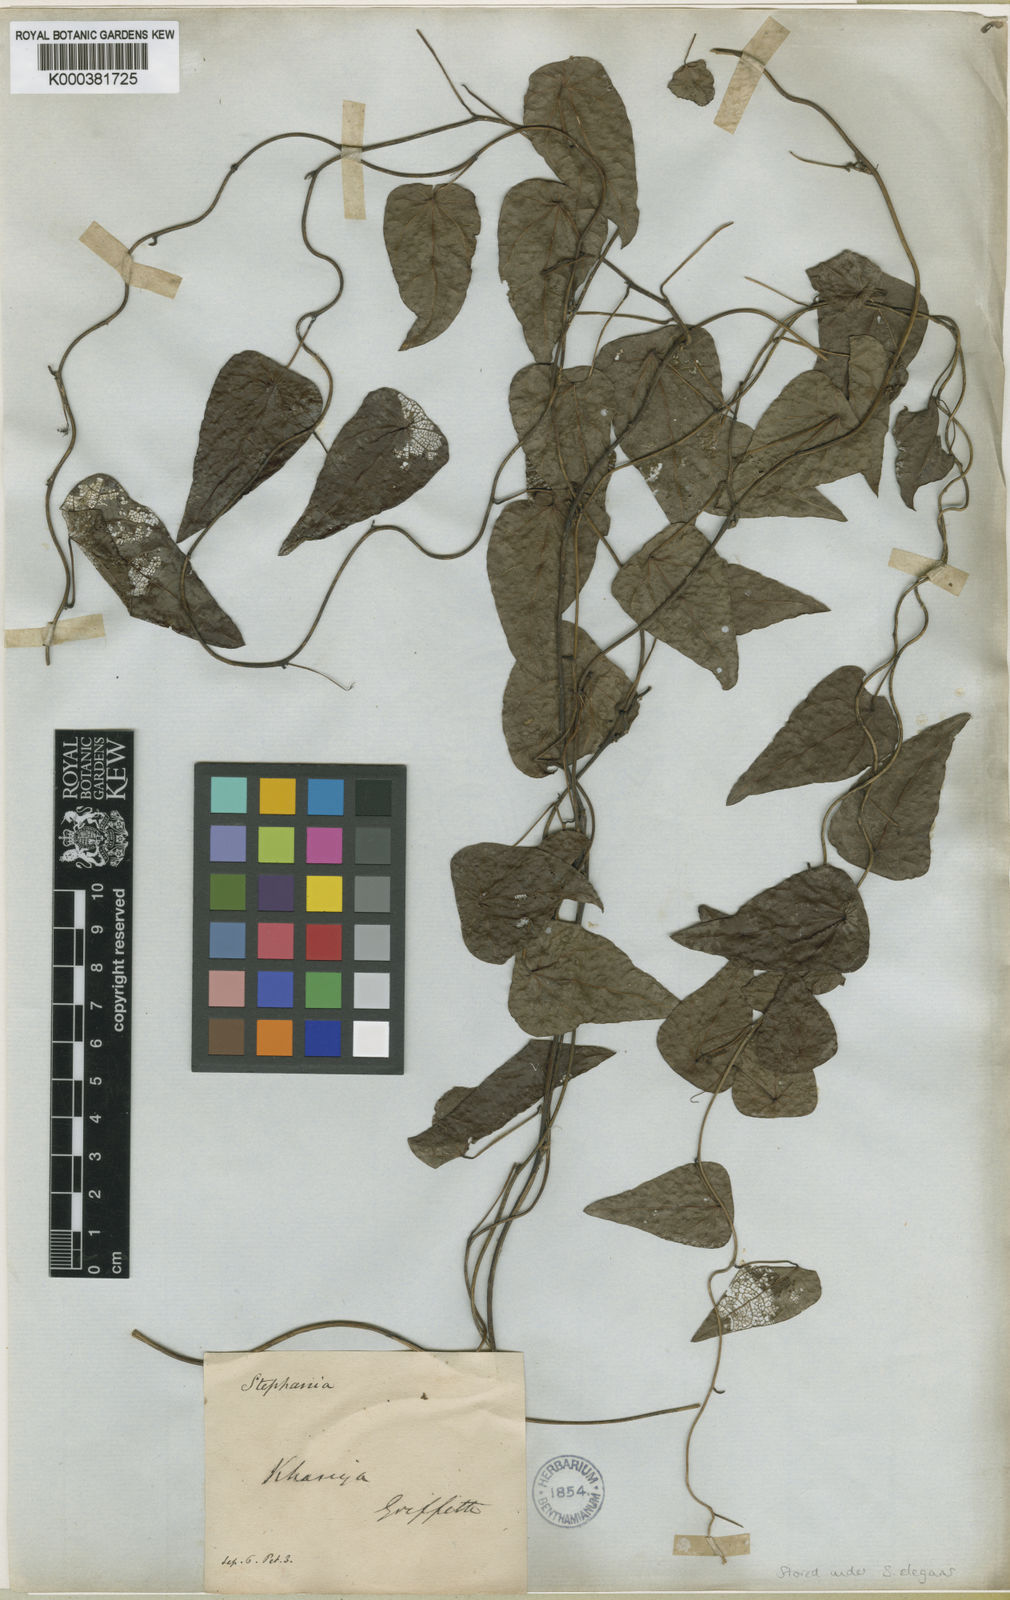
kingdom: Plantae
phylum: Tracheophyta
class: Magnoliopsida
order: Ranunculales
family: Menispermaceae
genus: Stephania
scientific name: Stephania elegans
